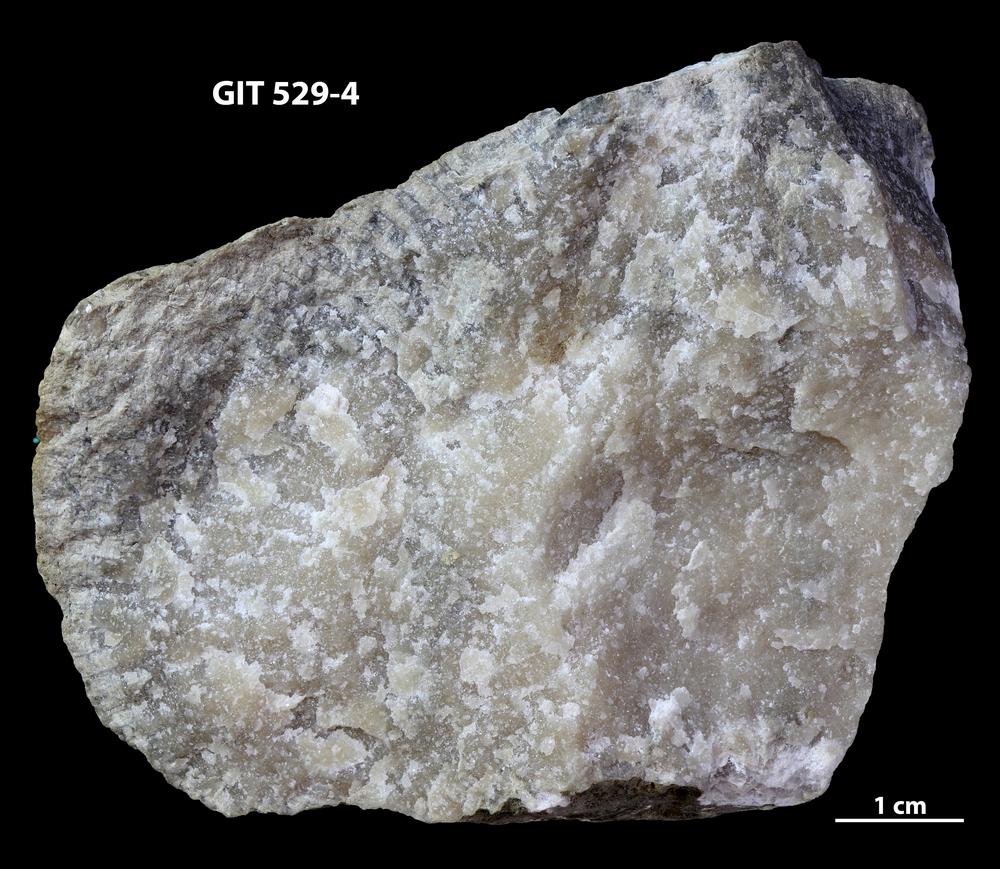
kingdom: Animalia
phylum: Cnidaria
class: Anthozoa
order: Heliolitina
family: Taeniolitidae
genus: Wormsipora
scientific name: Wormsipora
